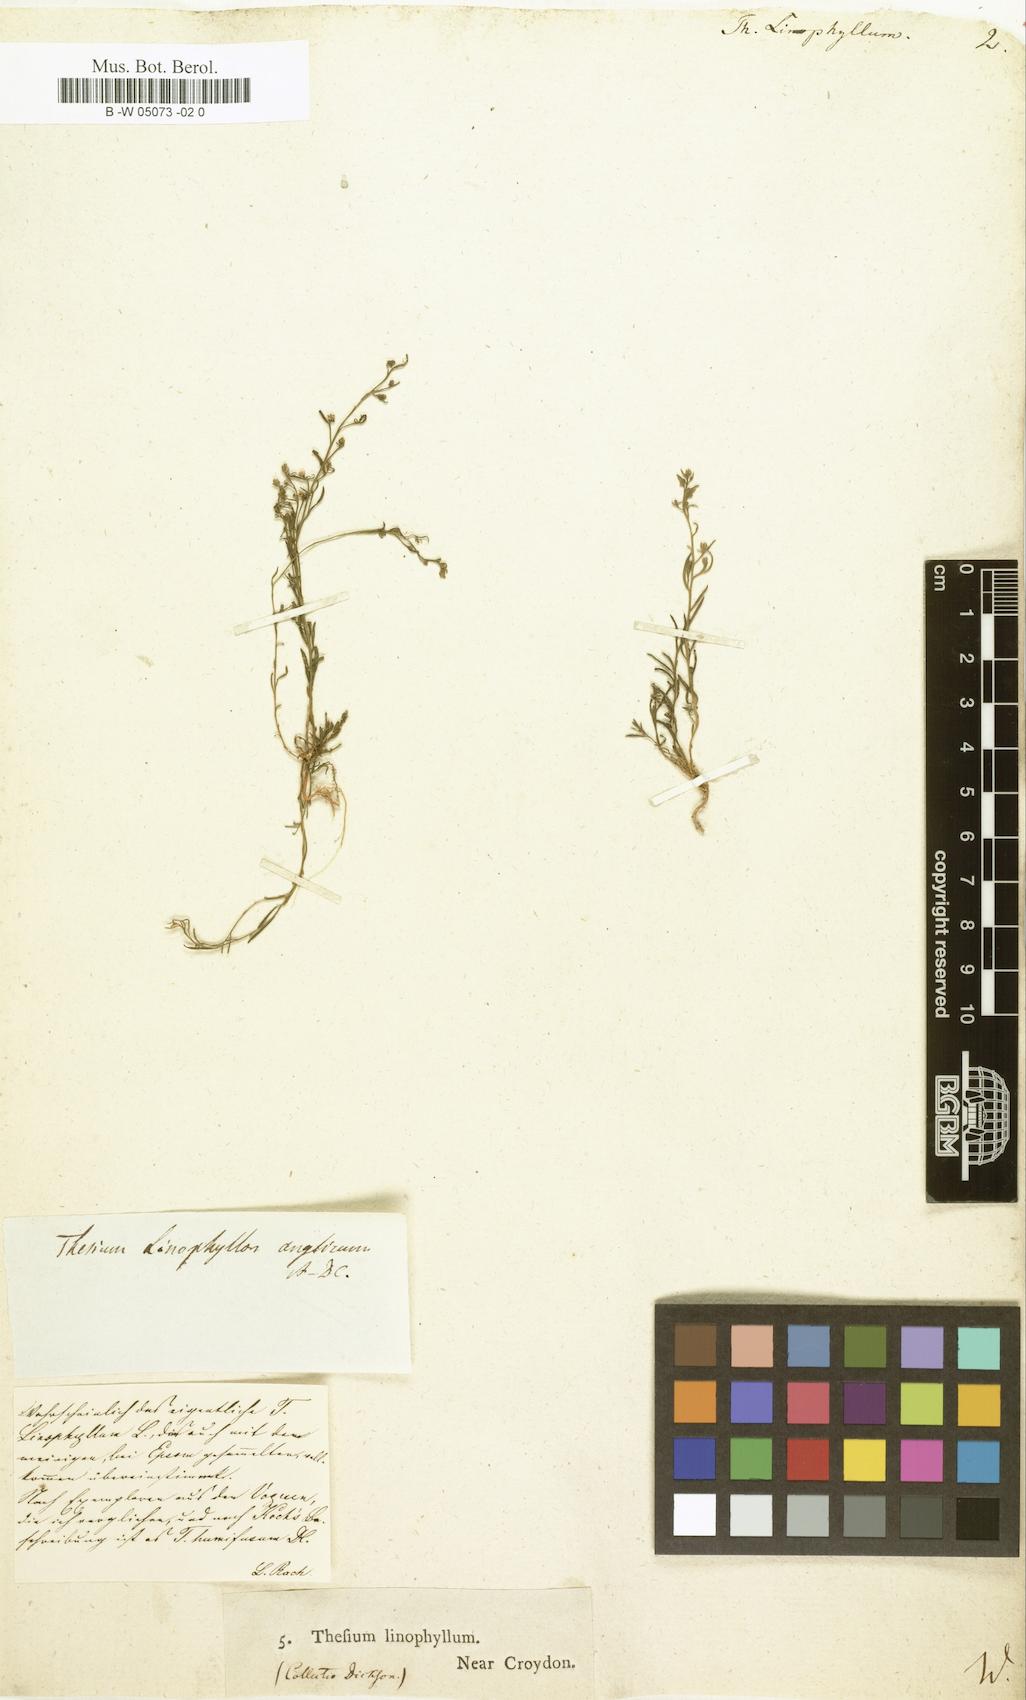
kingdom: Plantae
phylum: Tracheophyta
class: Magnoliopsida
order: Santalales
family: Thesiaceae
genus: Thesium
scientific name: Thesium linophyllon
